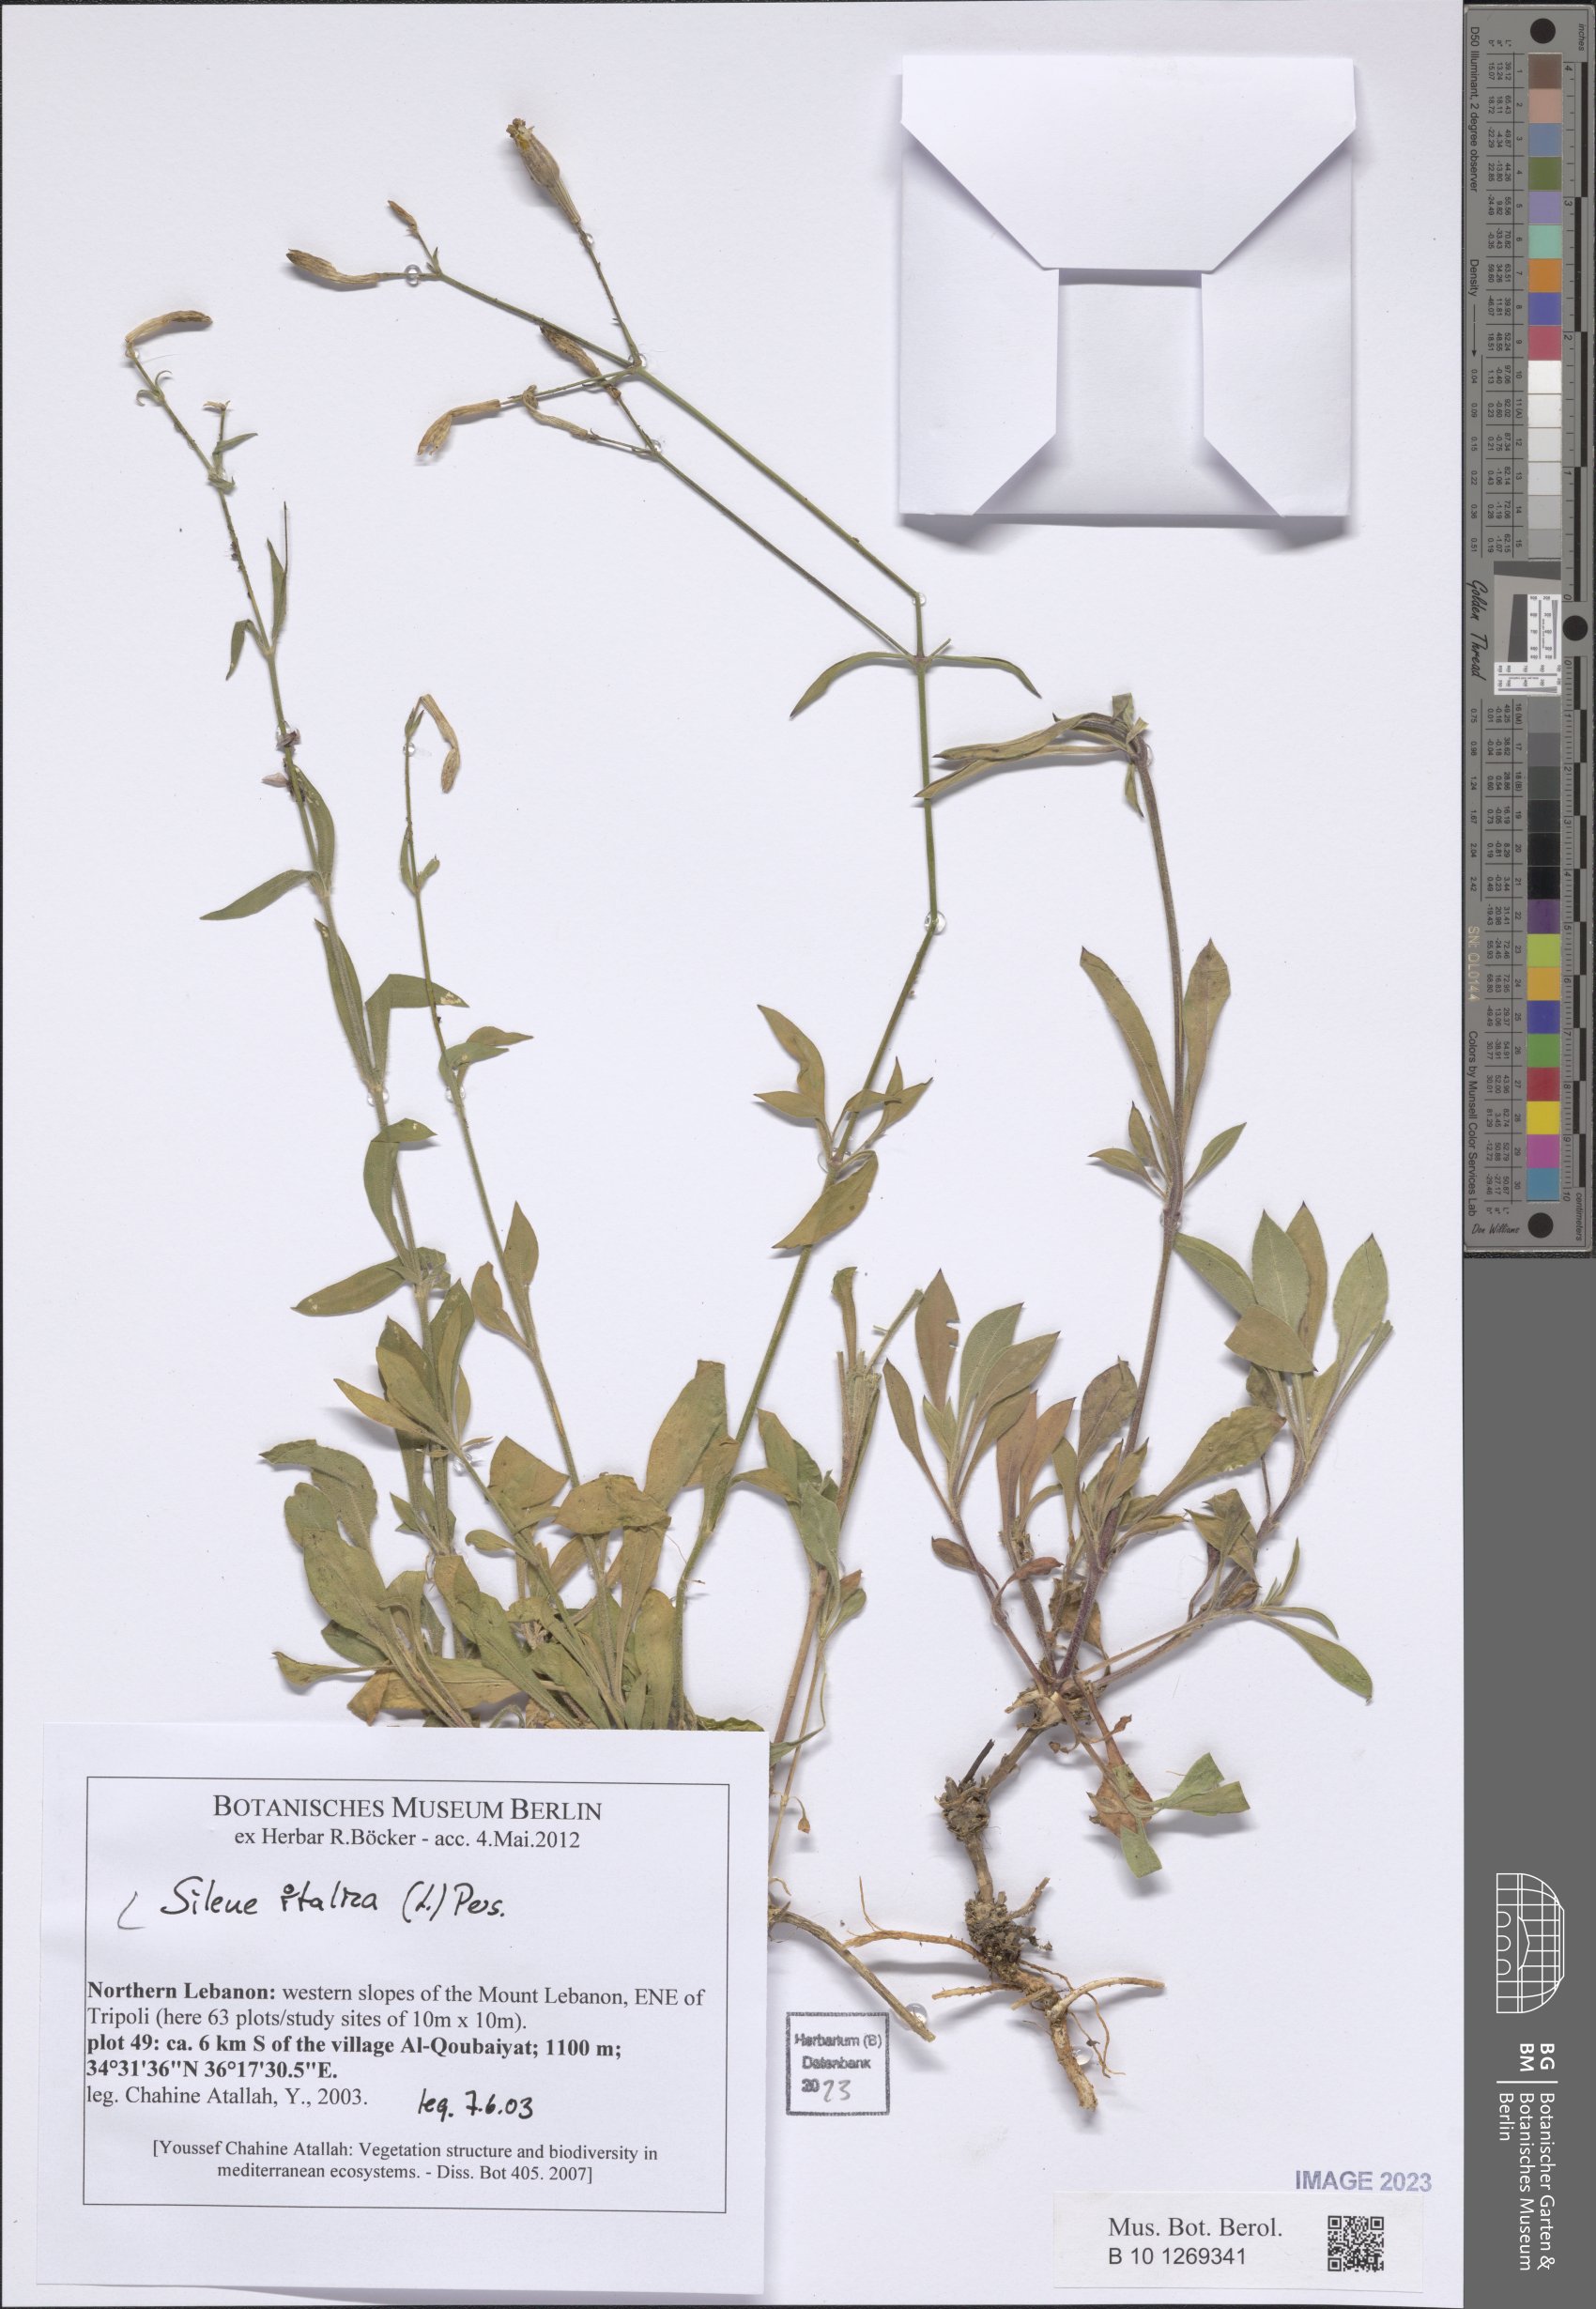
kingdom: Plantae
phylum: Tracheophyta
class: Magnoliopsida
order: Caryophyllales
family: Caryophyllaceae
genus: Silene
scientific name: Silene italica
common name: Italian catchfly
